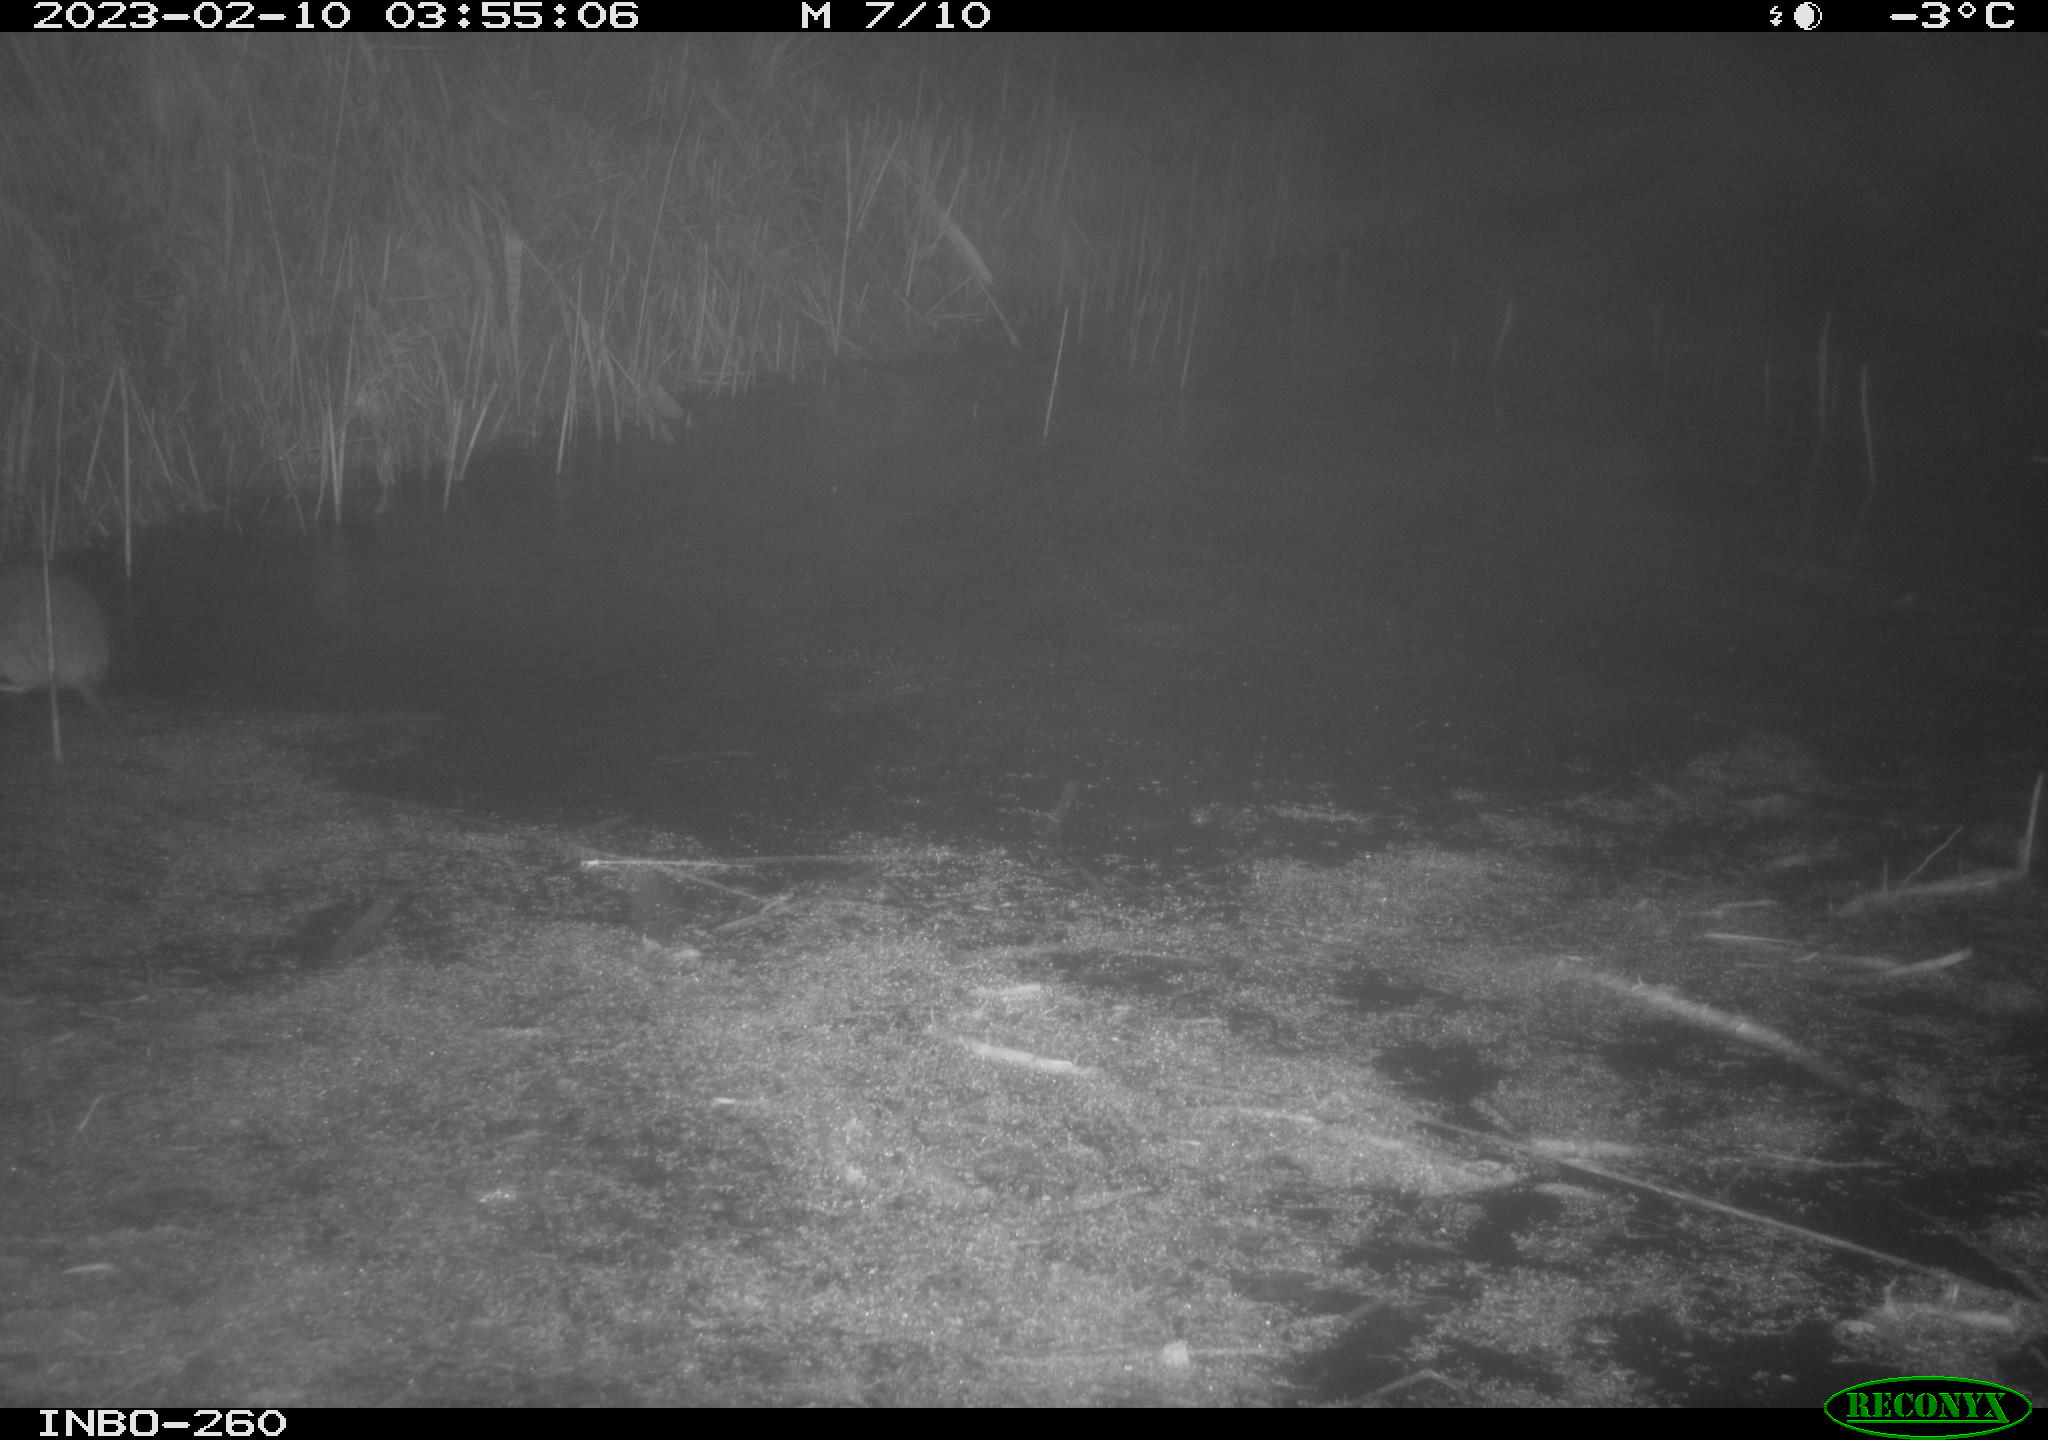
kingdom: Animalia
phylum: Chordata
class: Mammalia
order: Rodentia
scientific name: Rodentia
